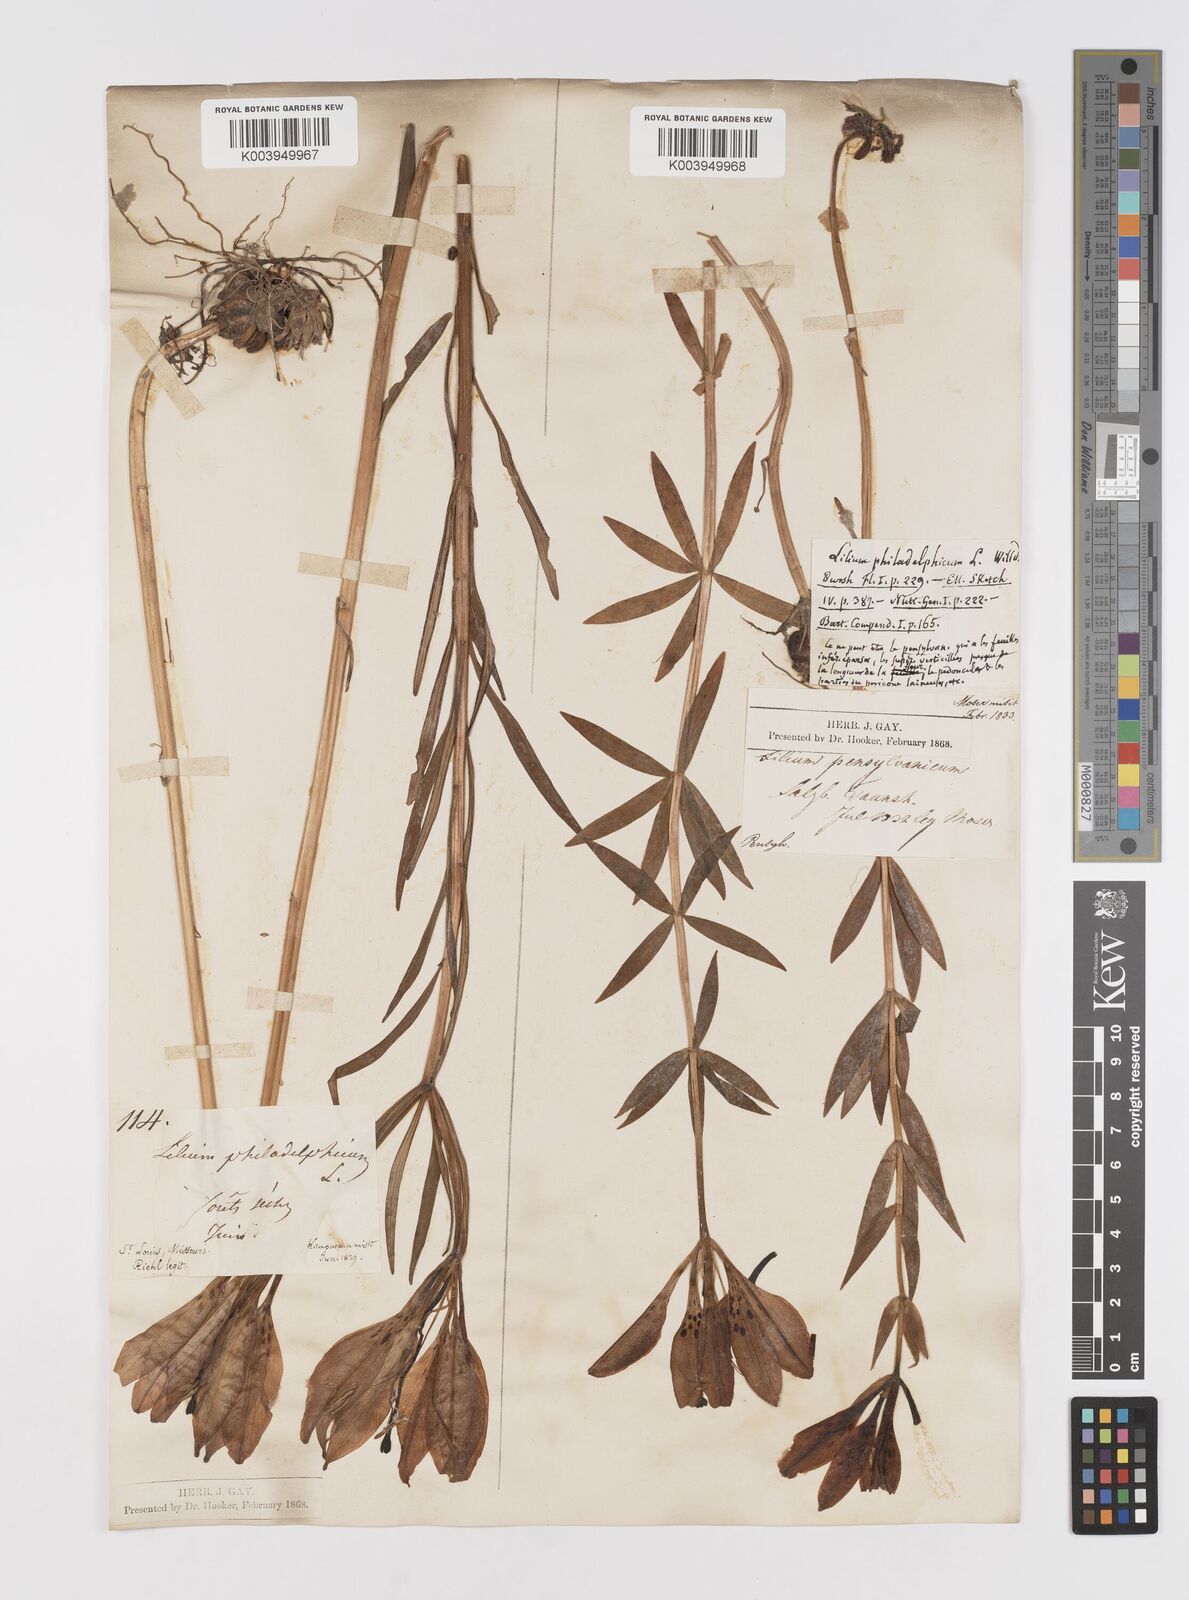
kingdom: Plantae
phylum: Tracheophyta
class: Liliopsida
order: Liliales
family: Liliaceae
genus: Lilium
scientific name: Lilium philadelphicum
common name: Red lily
